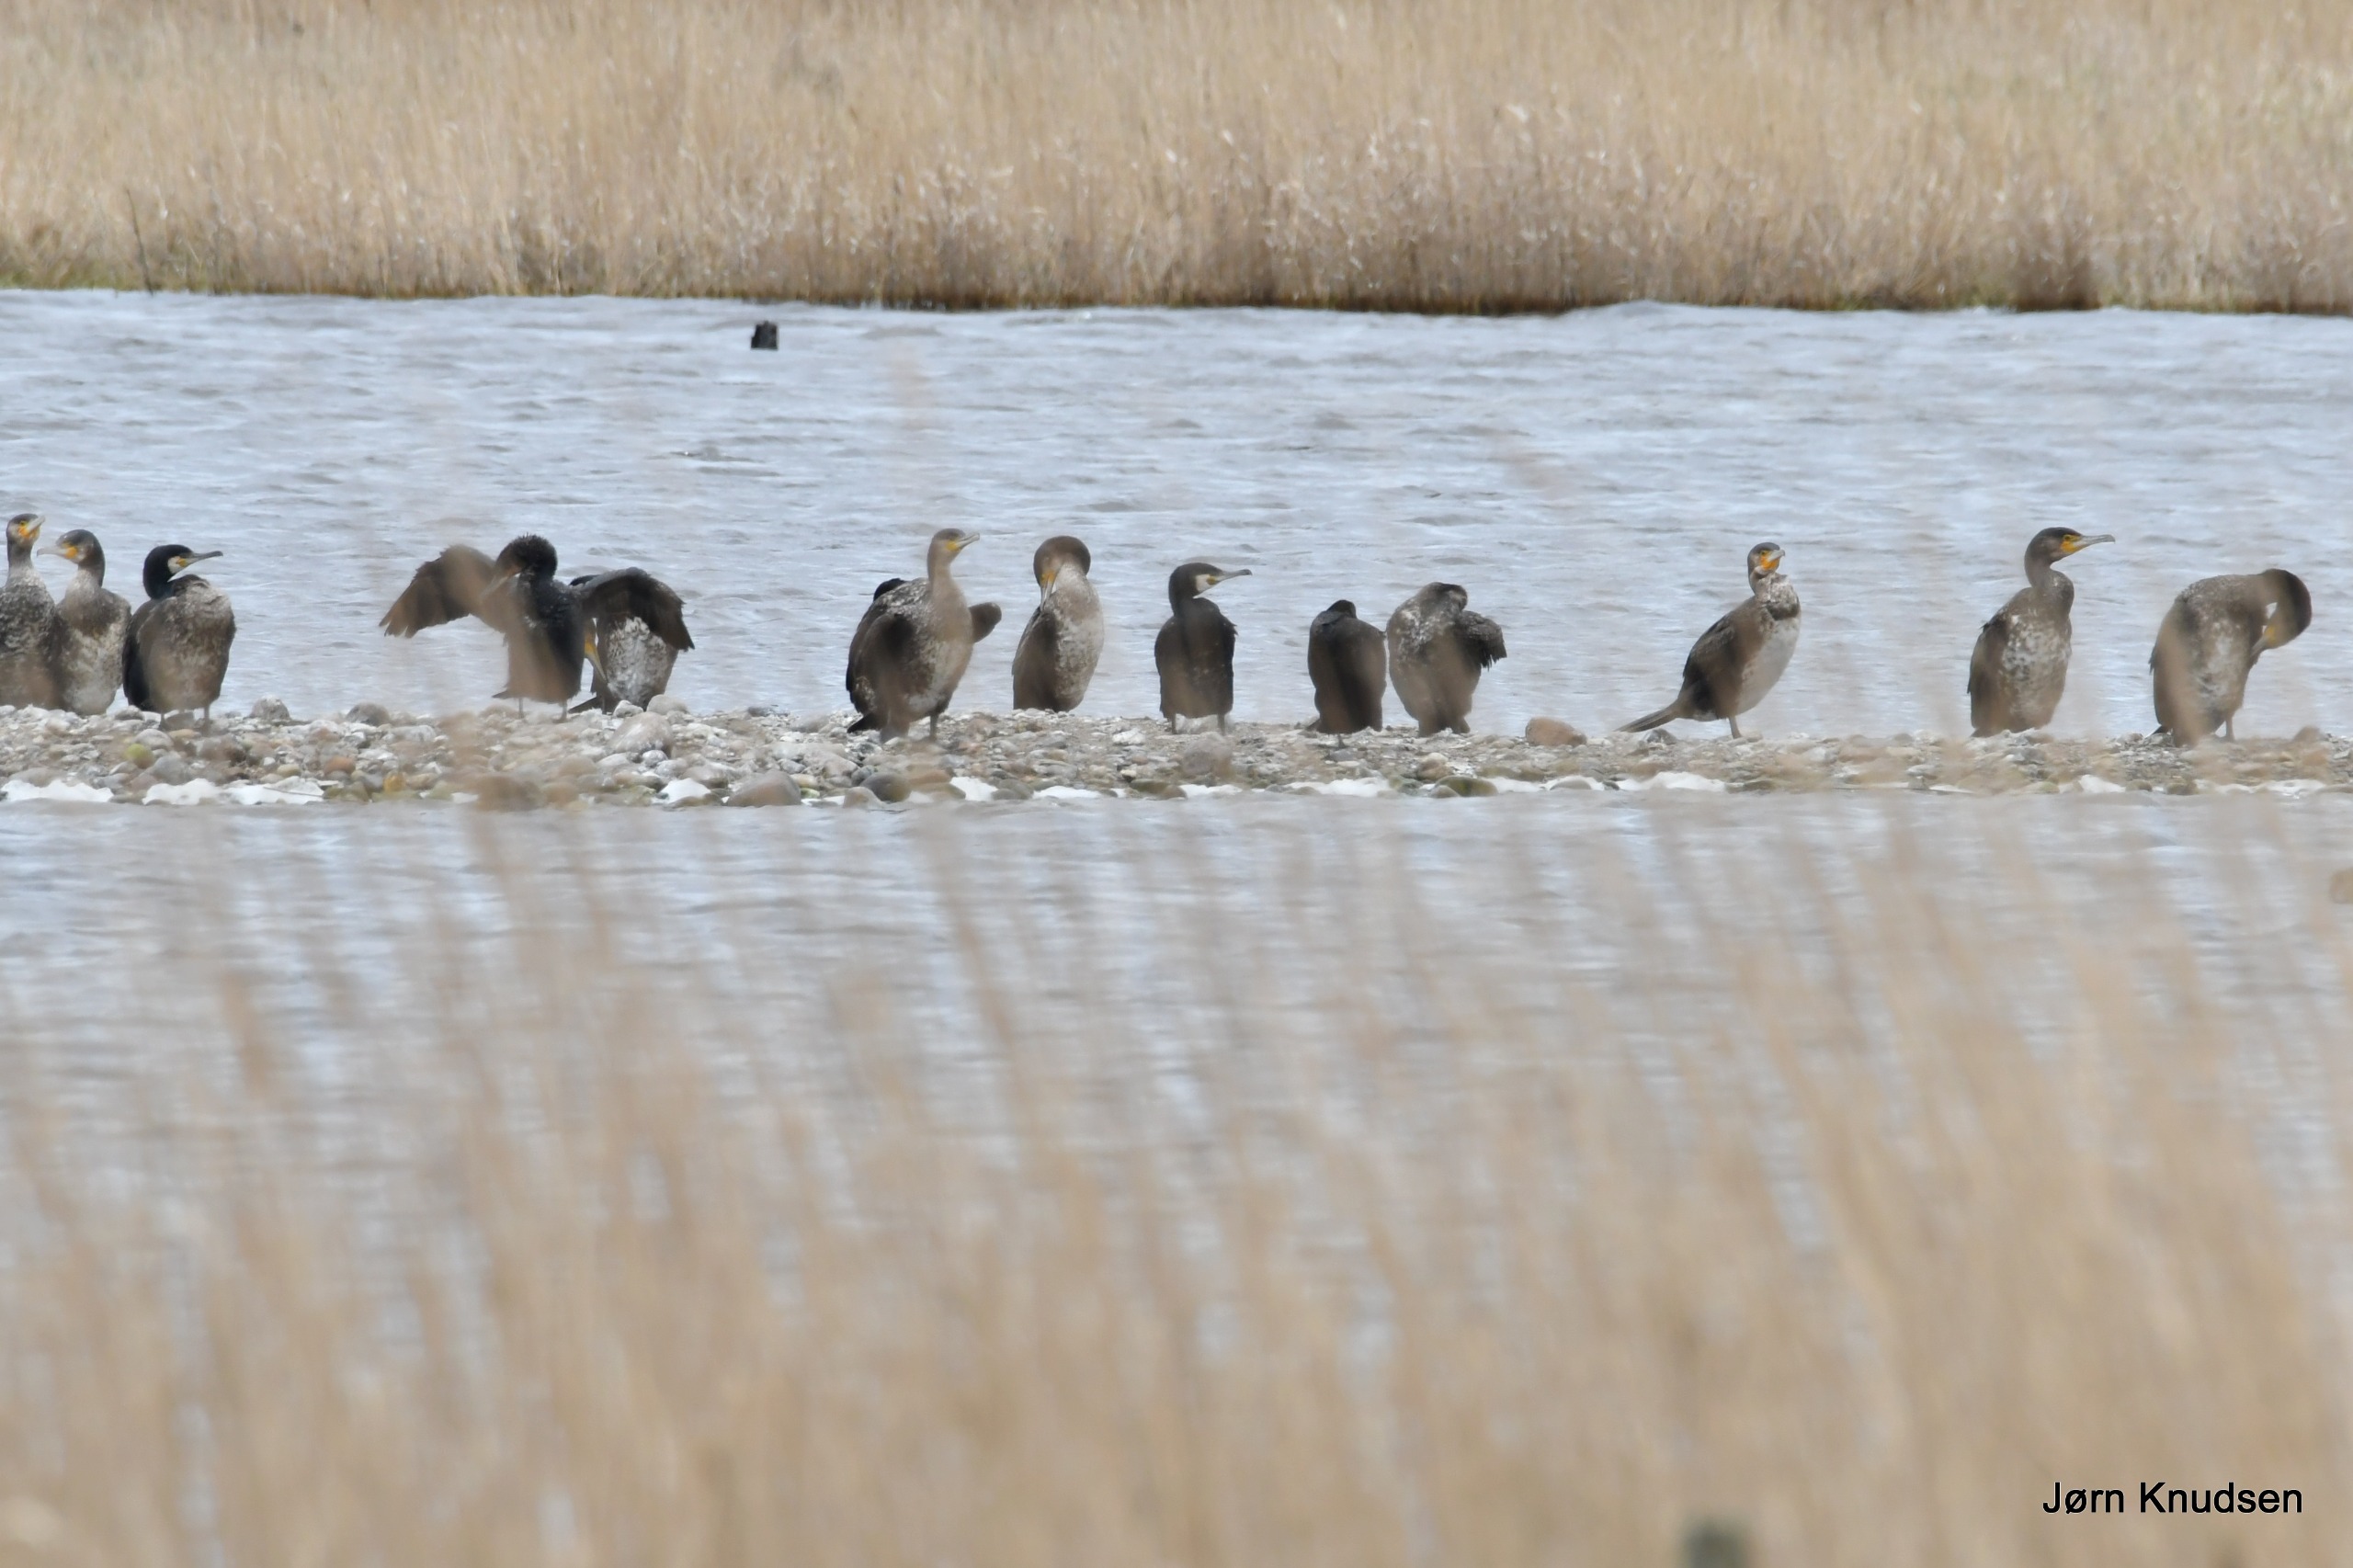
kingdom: Animalia
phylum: Chordata
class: Aves
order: Suliformes
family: Phalacrocoracidae
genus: Phalacrocorax
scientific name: Phalacrocorax carbo
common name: Skarv
